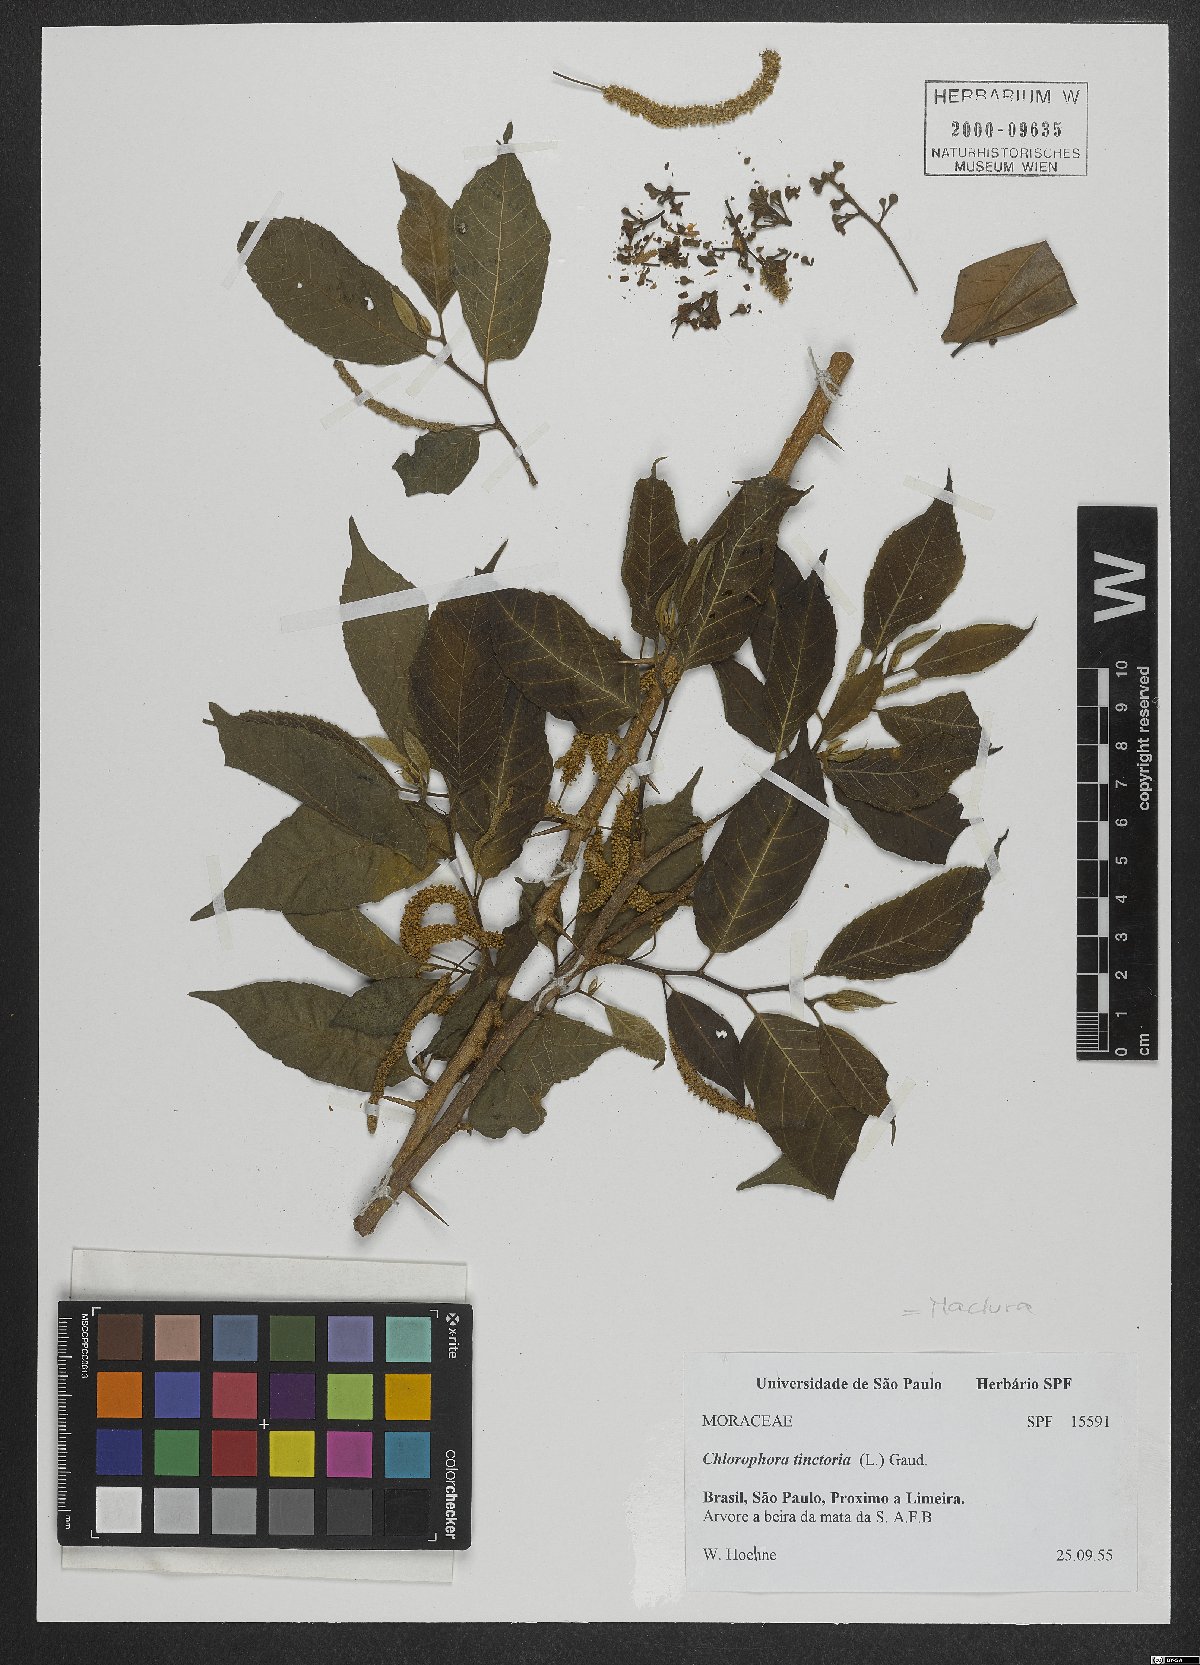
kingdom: Plantae
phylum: Tracheophyta
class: Magnoliopsida
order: Rosales
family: Moraceae
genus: Maclura
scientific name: Maclura tinctoria
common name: Old fustic
